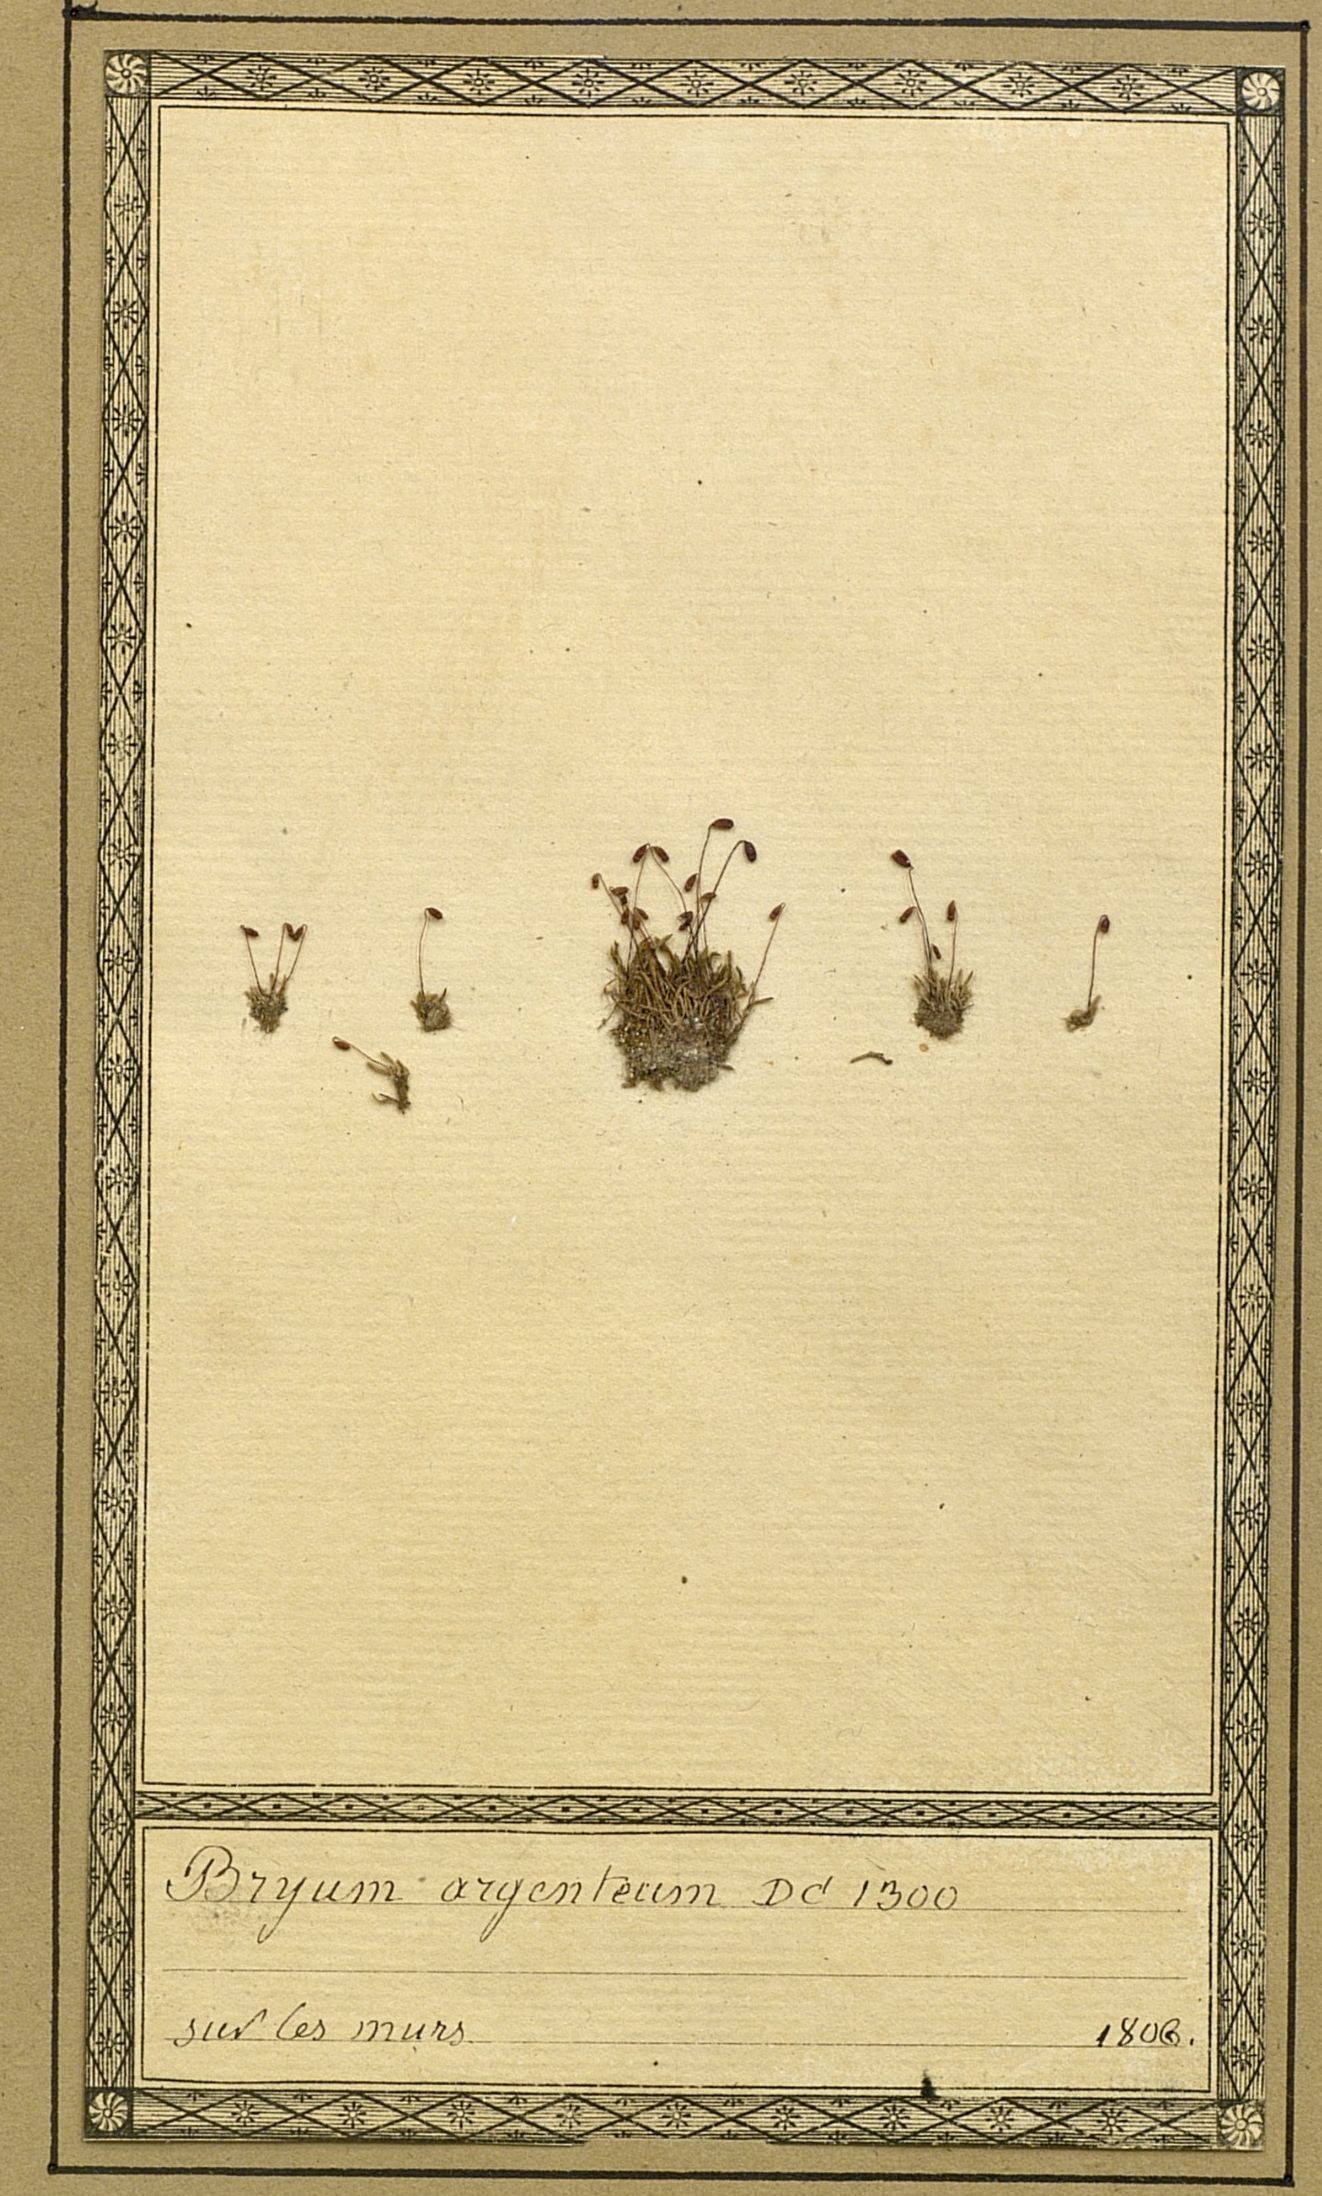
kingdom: Plantae
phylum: Bryophyta
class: Bryopsida
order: Bryales
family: Bryaceae
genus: Bryum
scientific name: Bryum argenteum
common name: Silver-moss
